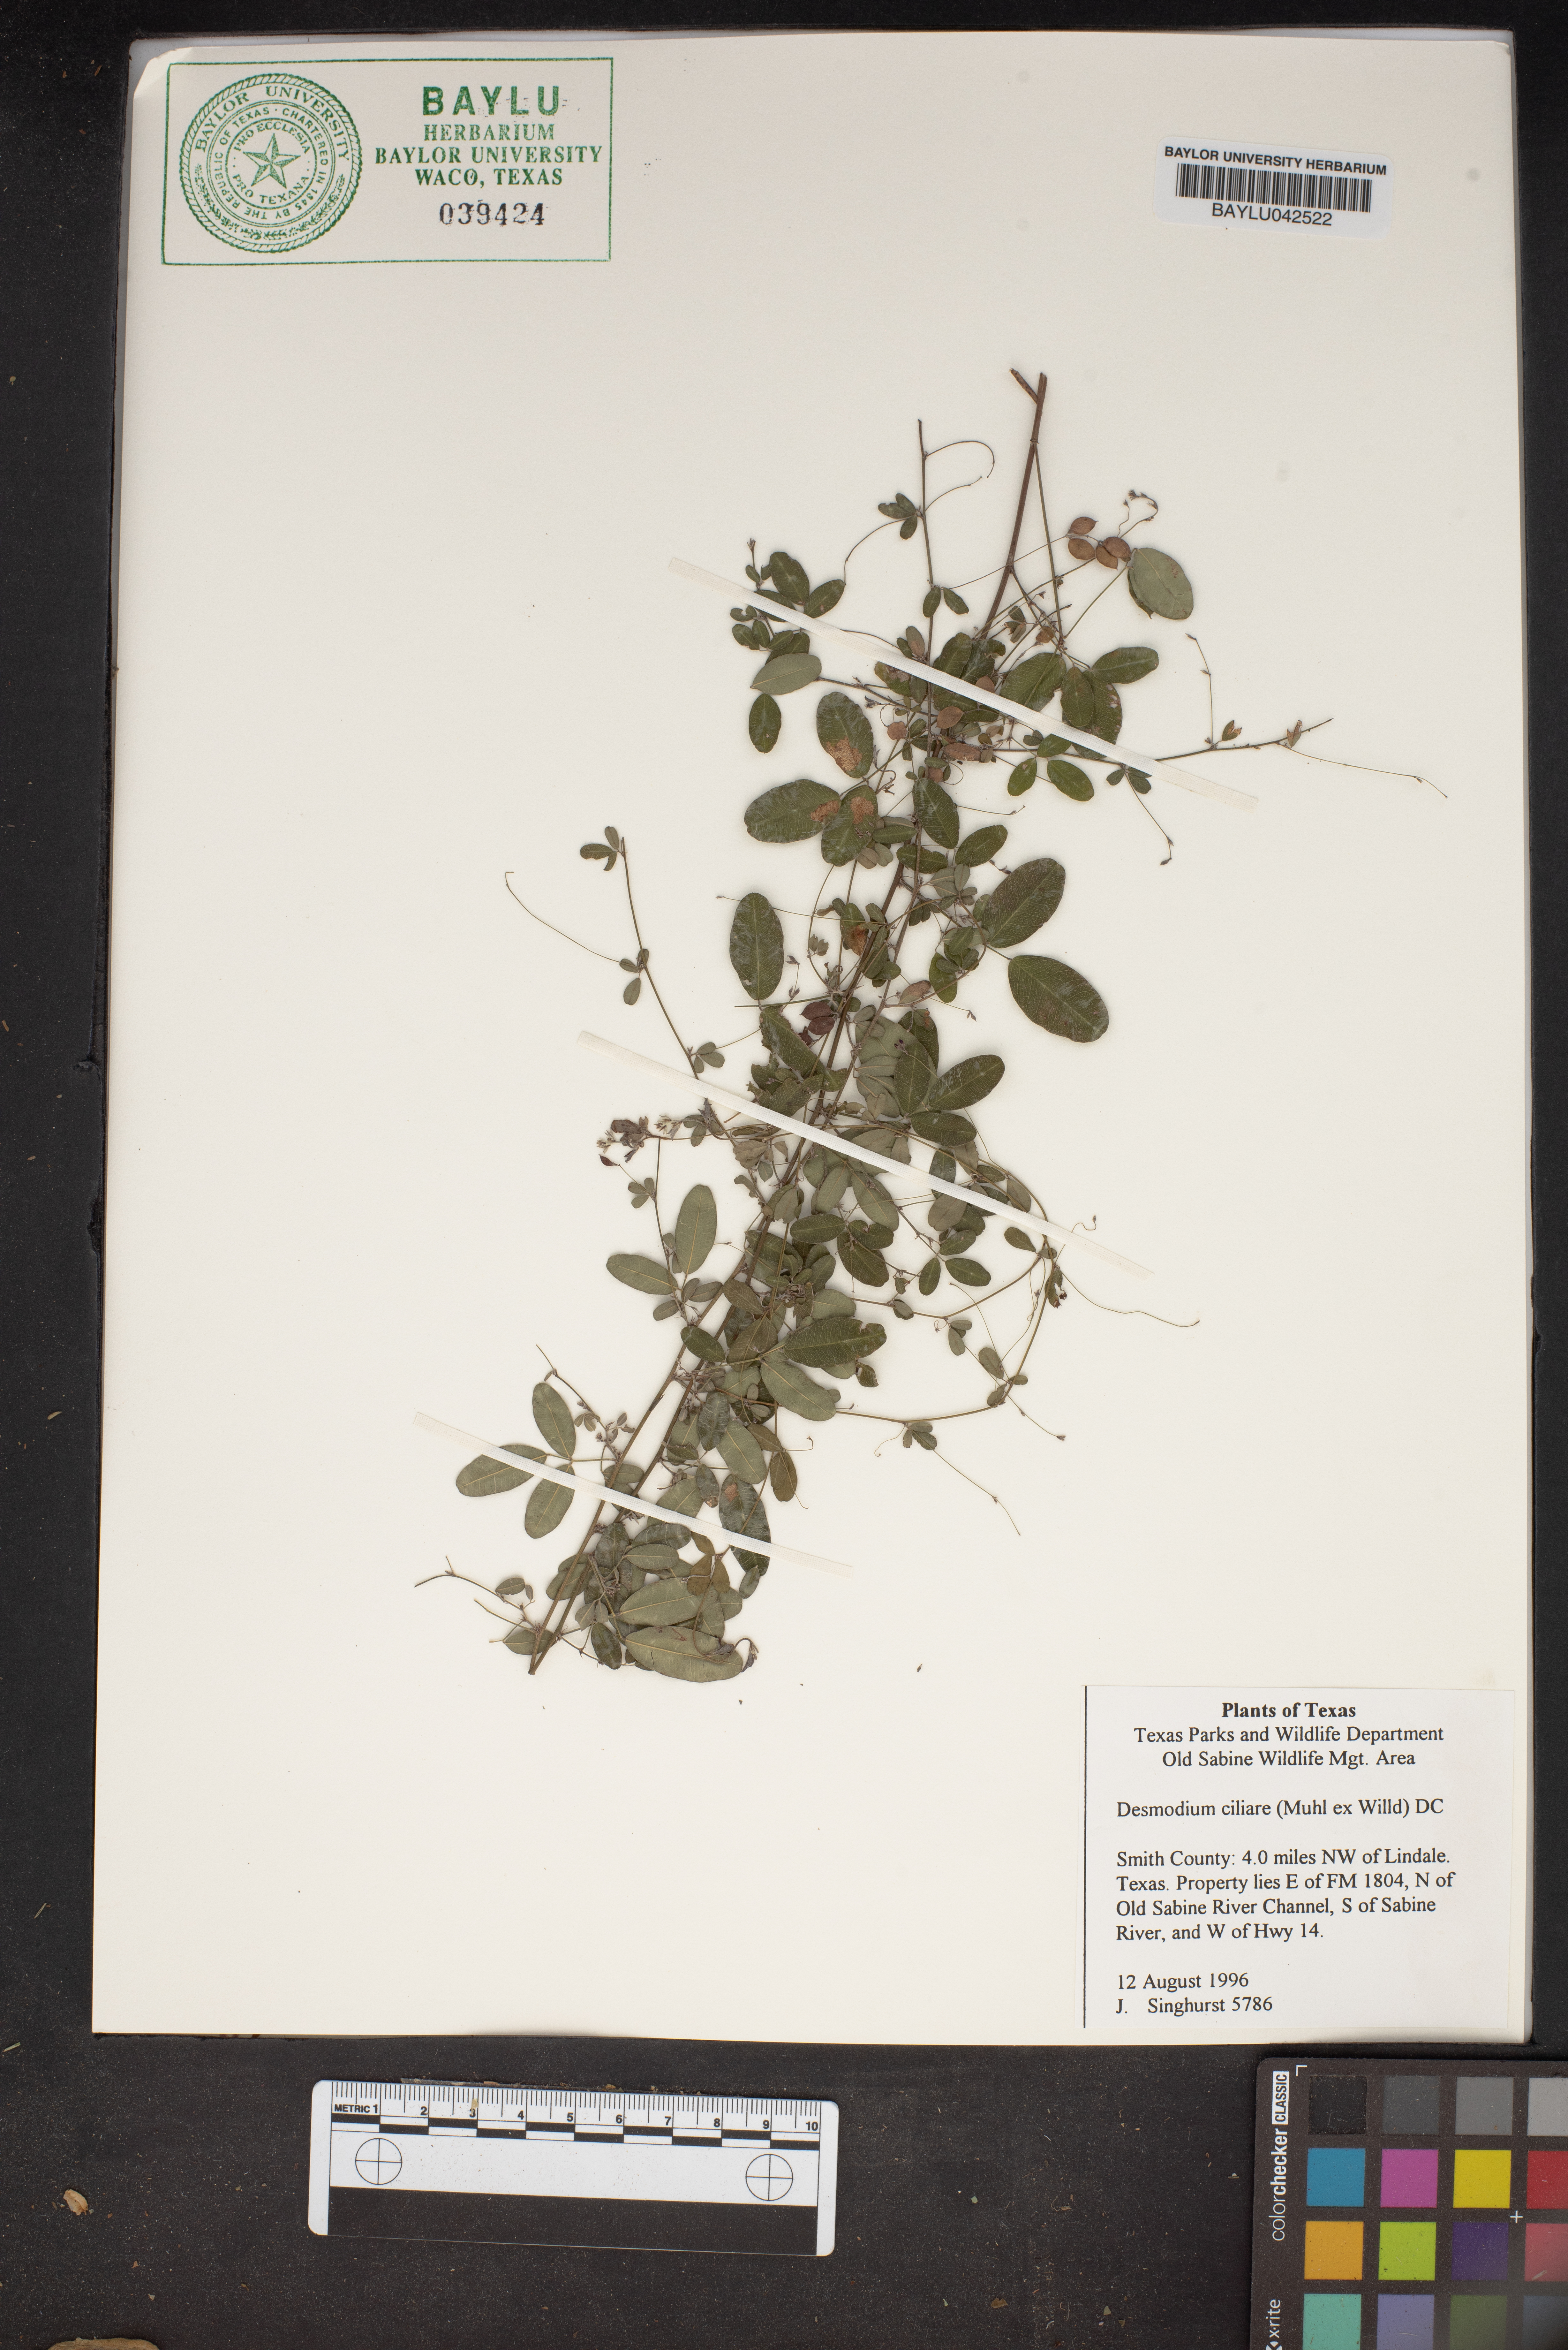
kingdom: Plantae
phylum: Tracheophyta
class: Magnoliopsida
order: Fabales
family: Fabaceae
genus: Desmodium
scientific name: Desmodium ciliare
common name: Hairy small-leaf ticktrefoil
